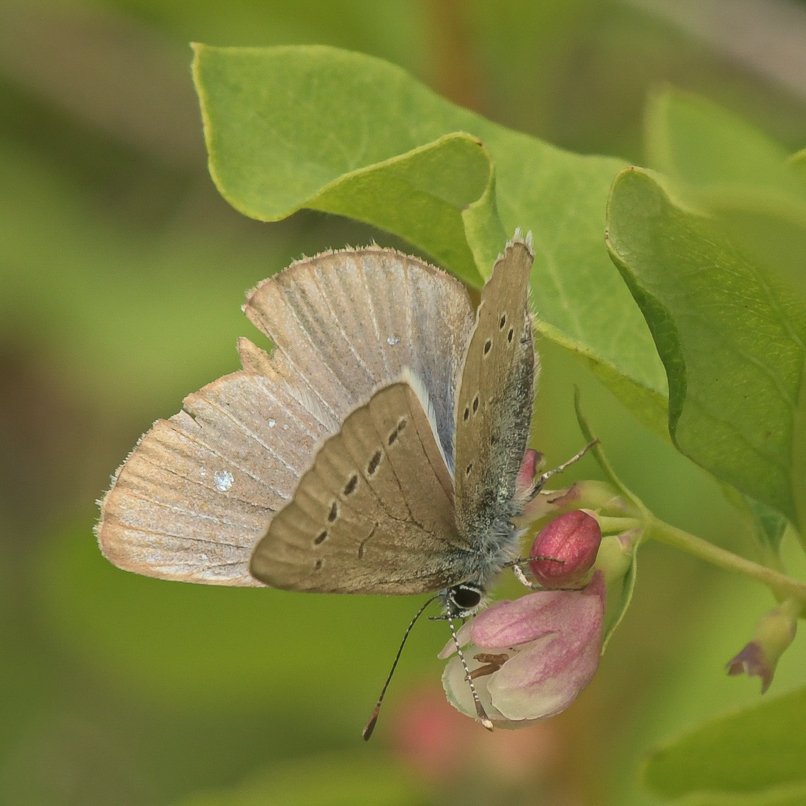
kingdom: Animalia
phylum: Arthropoda
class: Insecta
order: Lepidoptera
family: Lycaenidae
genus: Glaucopsyche
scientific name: Glaucopsyche lygdamus
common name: Silvery Blue
